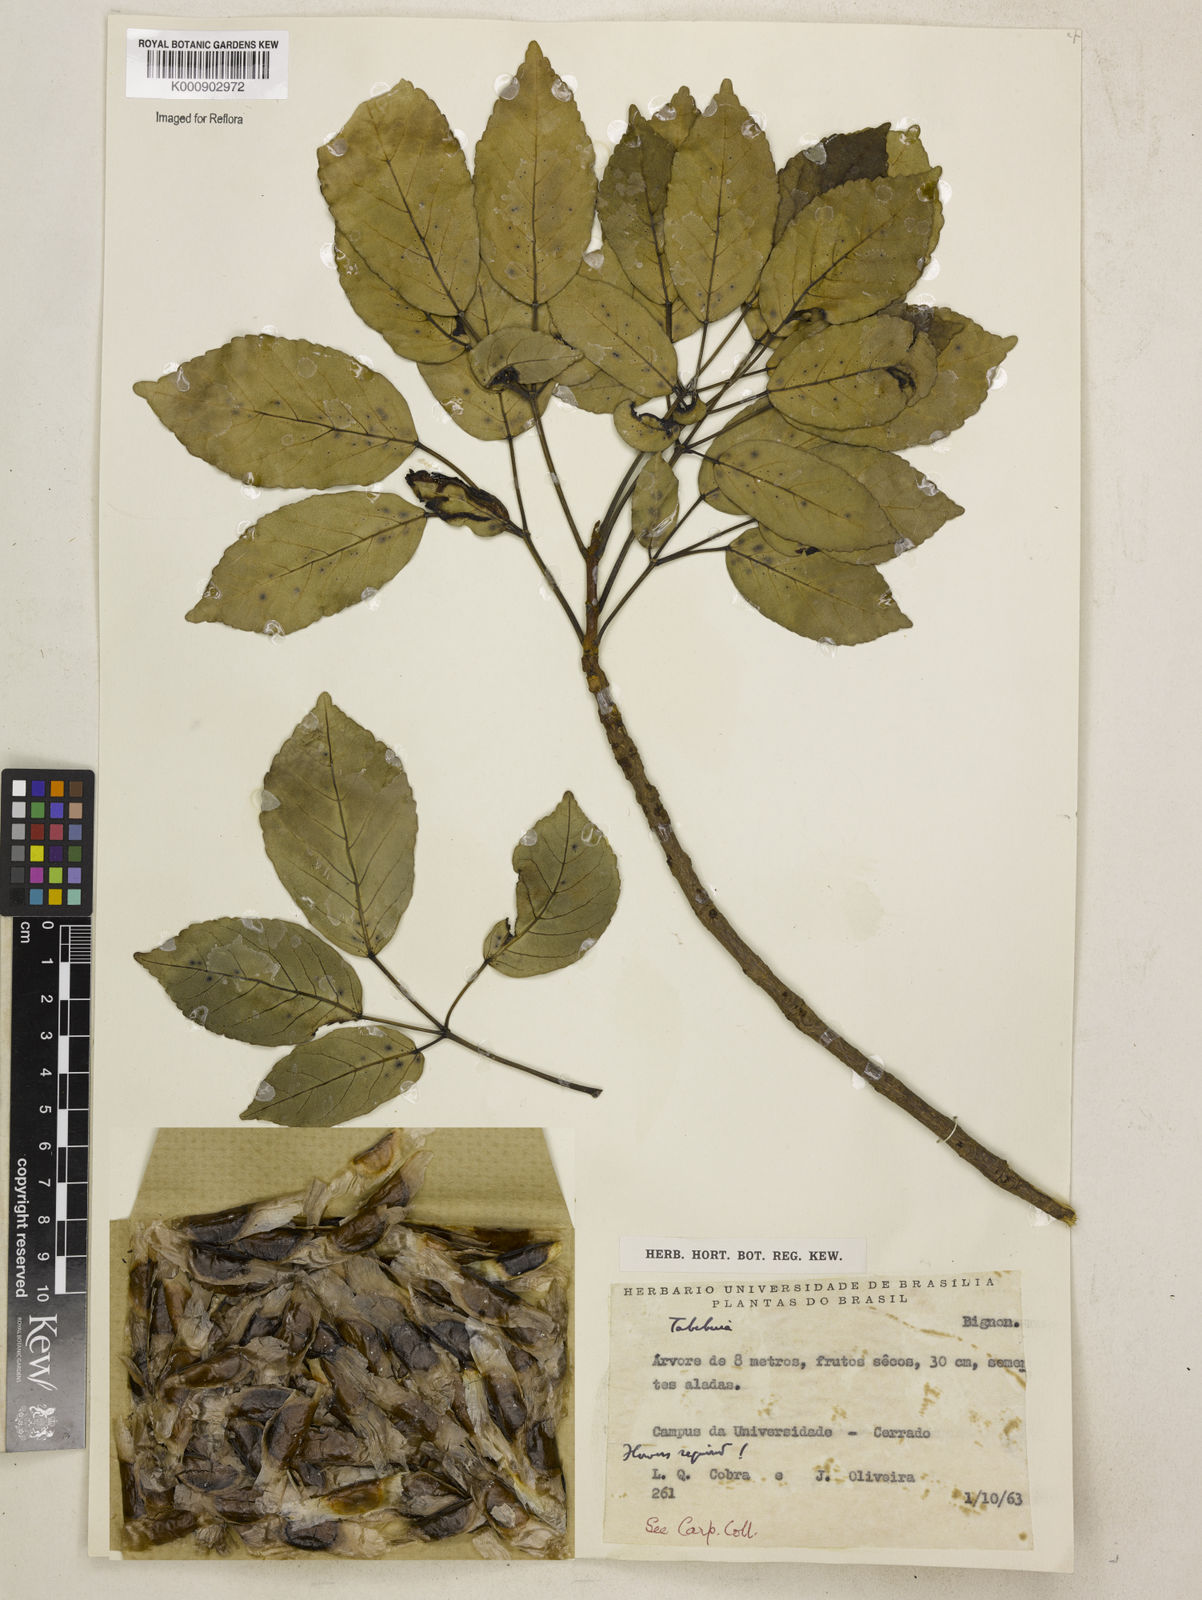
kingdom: Plantae
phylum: Tracheophyta
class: Magnoliopsida
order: Lamiales
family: Bignoniaceae
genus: Tabebuia
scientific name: Tabebuia
